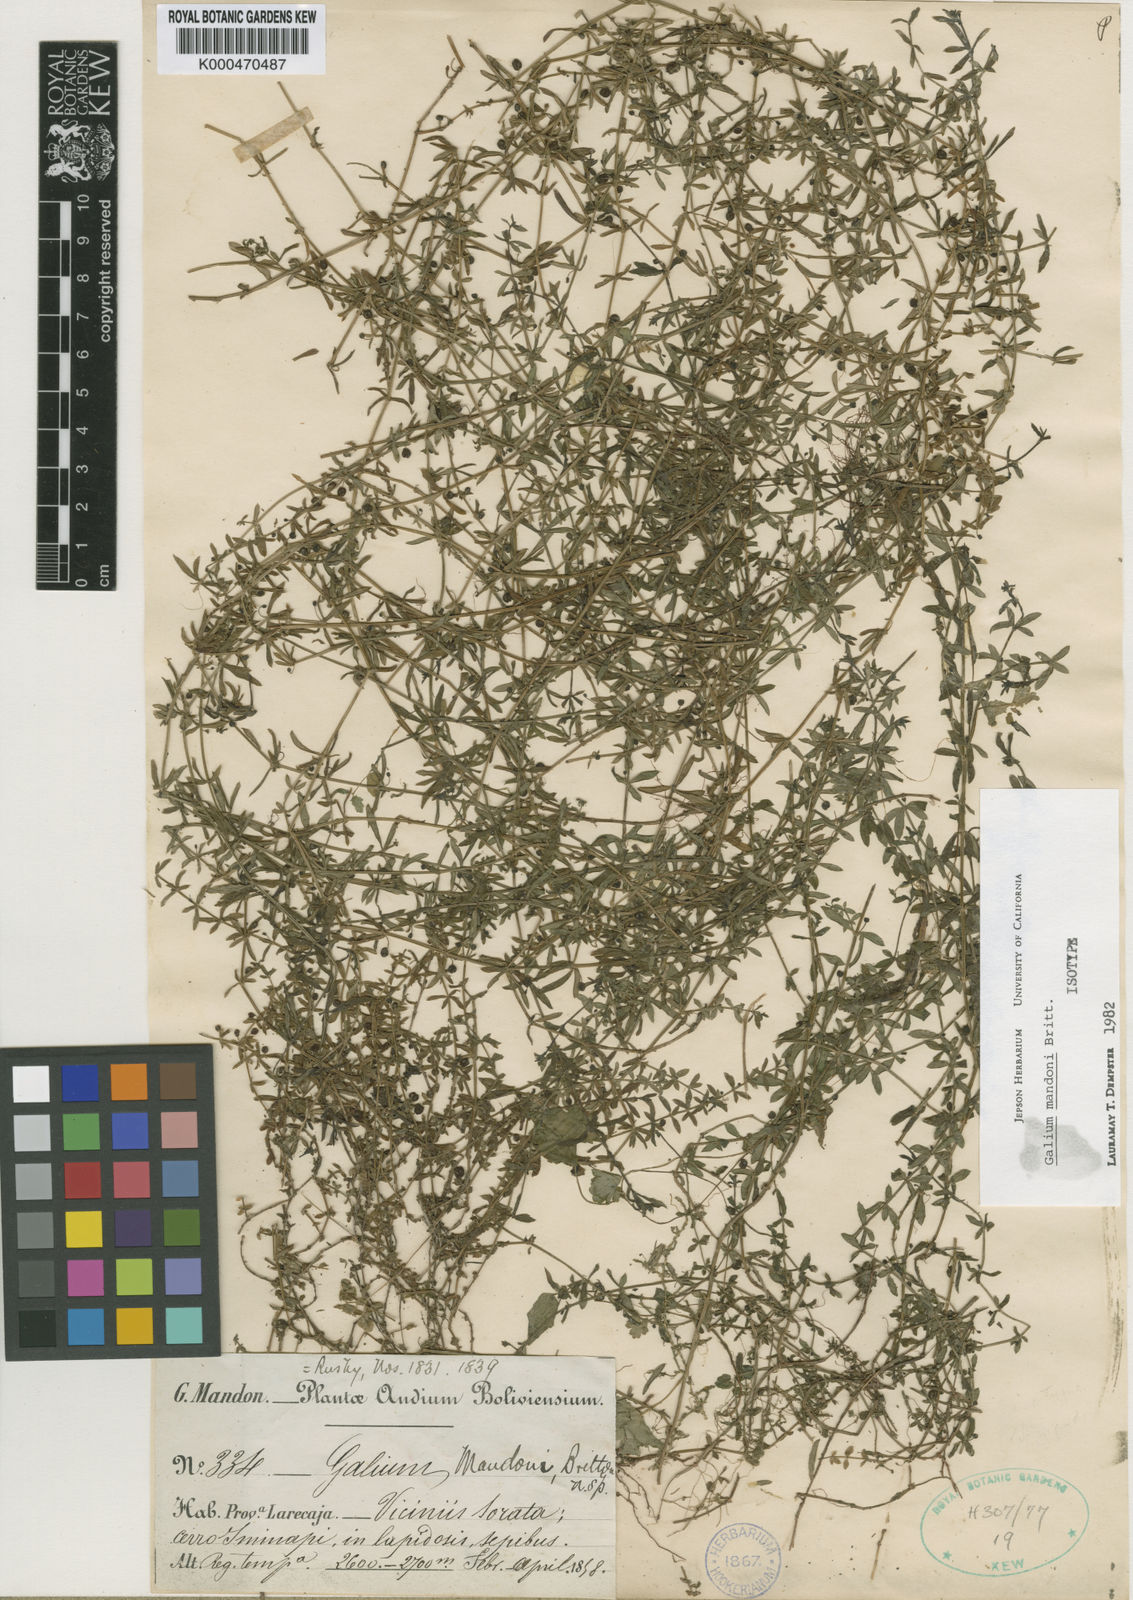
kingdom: Plantae
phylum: Tracheophyta
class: Magnoliopsida
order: Gentianales
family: Rubiaceae
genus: Galium
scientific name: Galium mandonii
